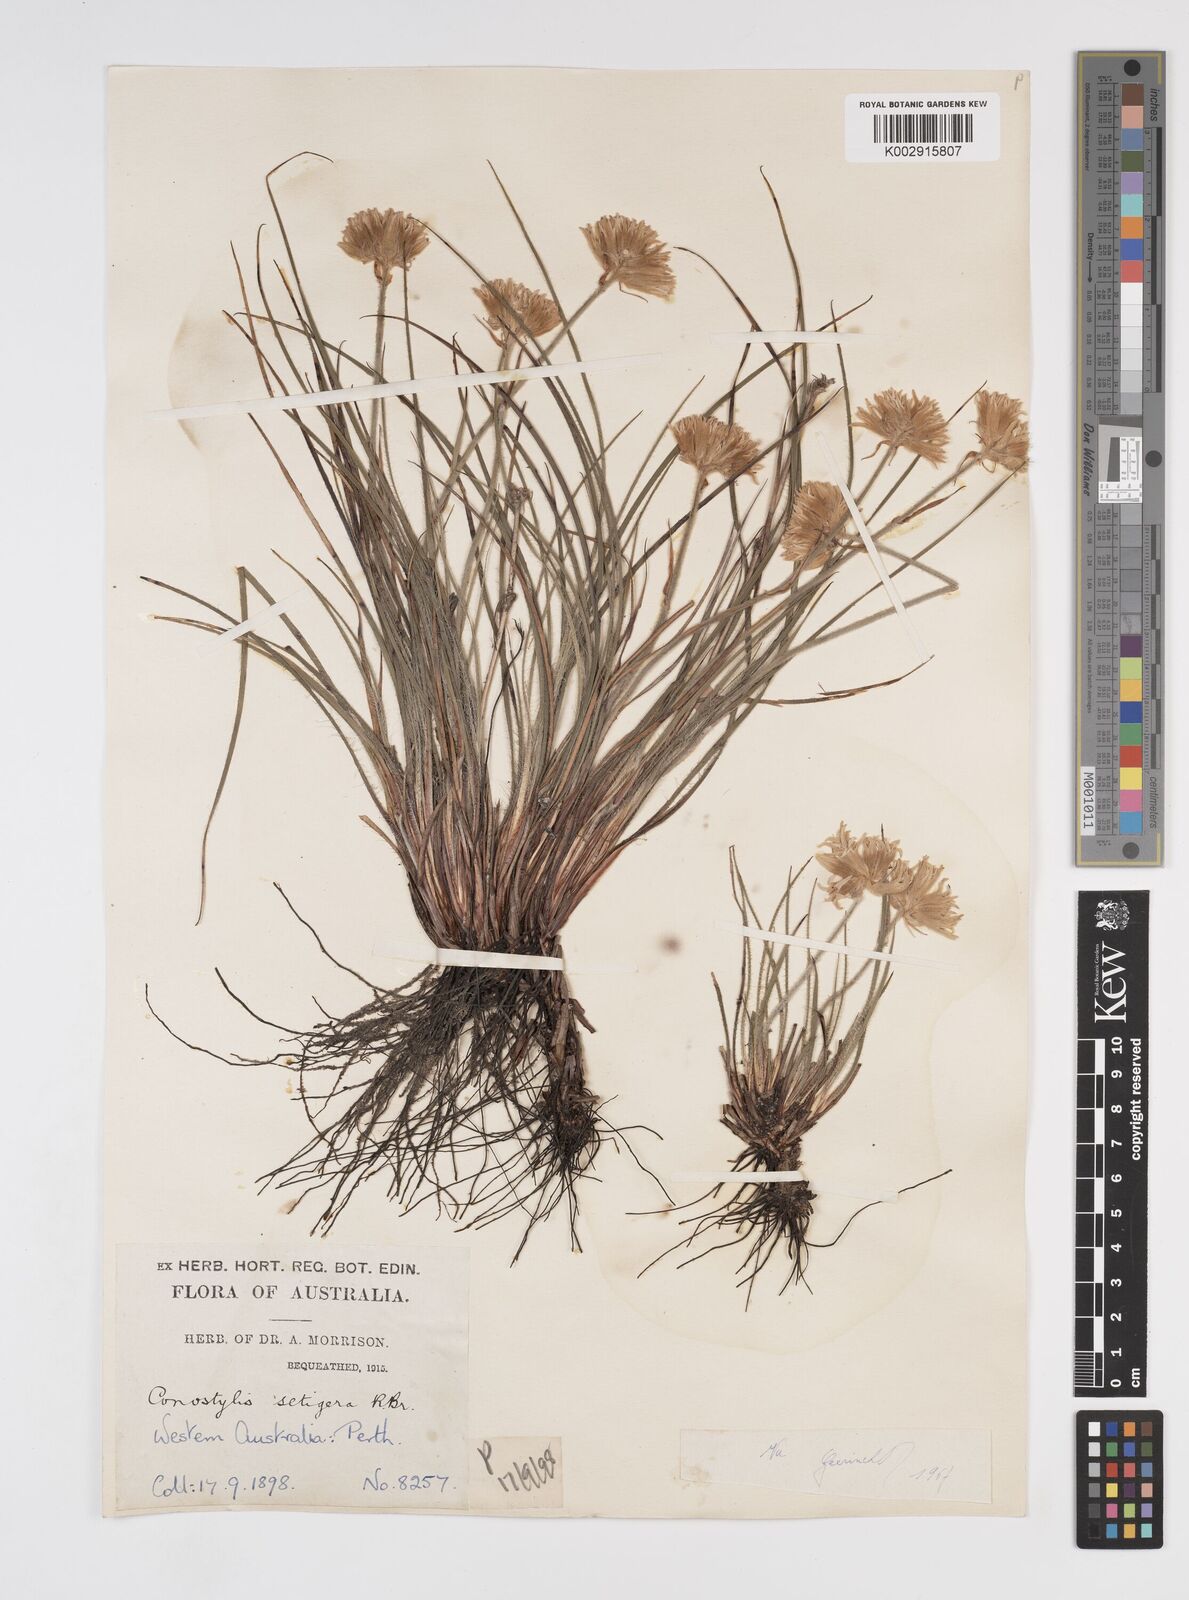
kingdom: Plantae
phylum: Tracheophyta
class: Liliopsida
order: Commelinales
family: Haemodoraceae
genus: Conostylis
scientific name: Conostylis setigera
